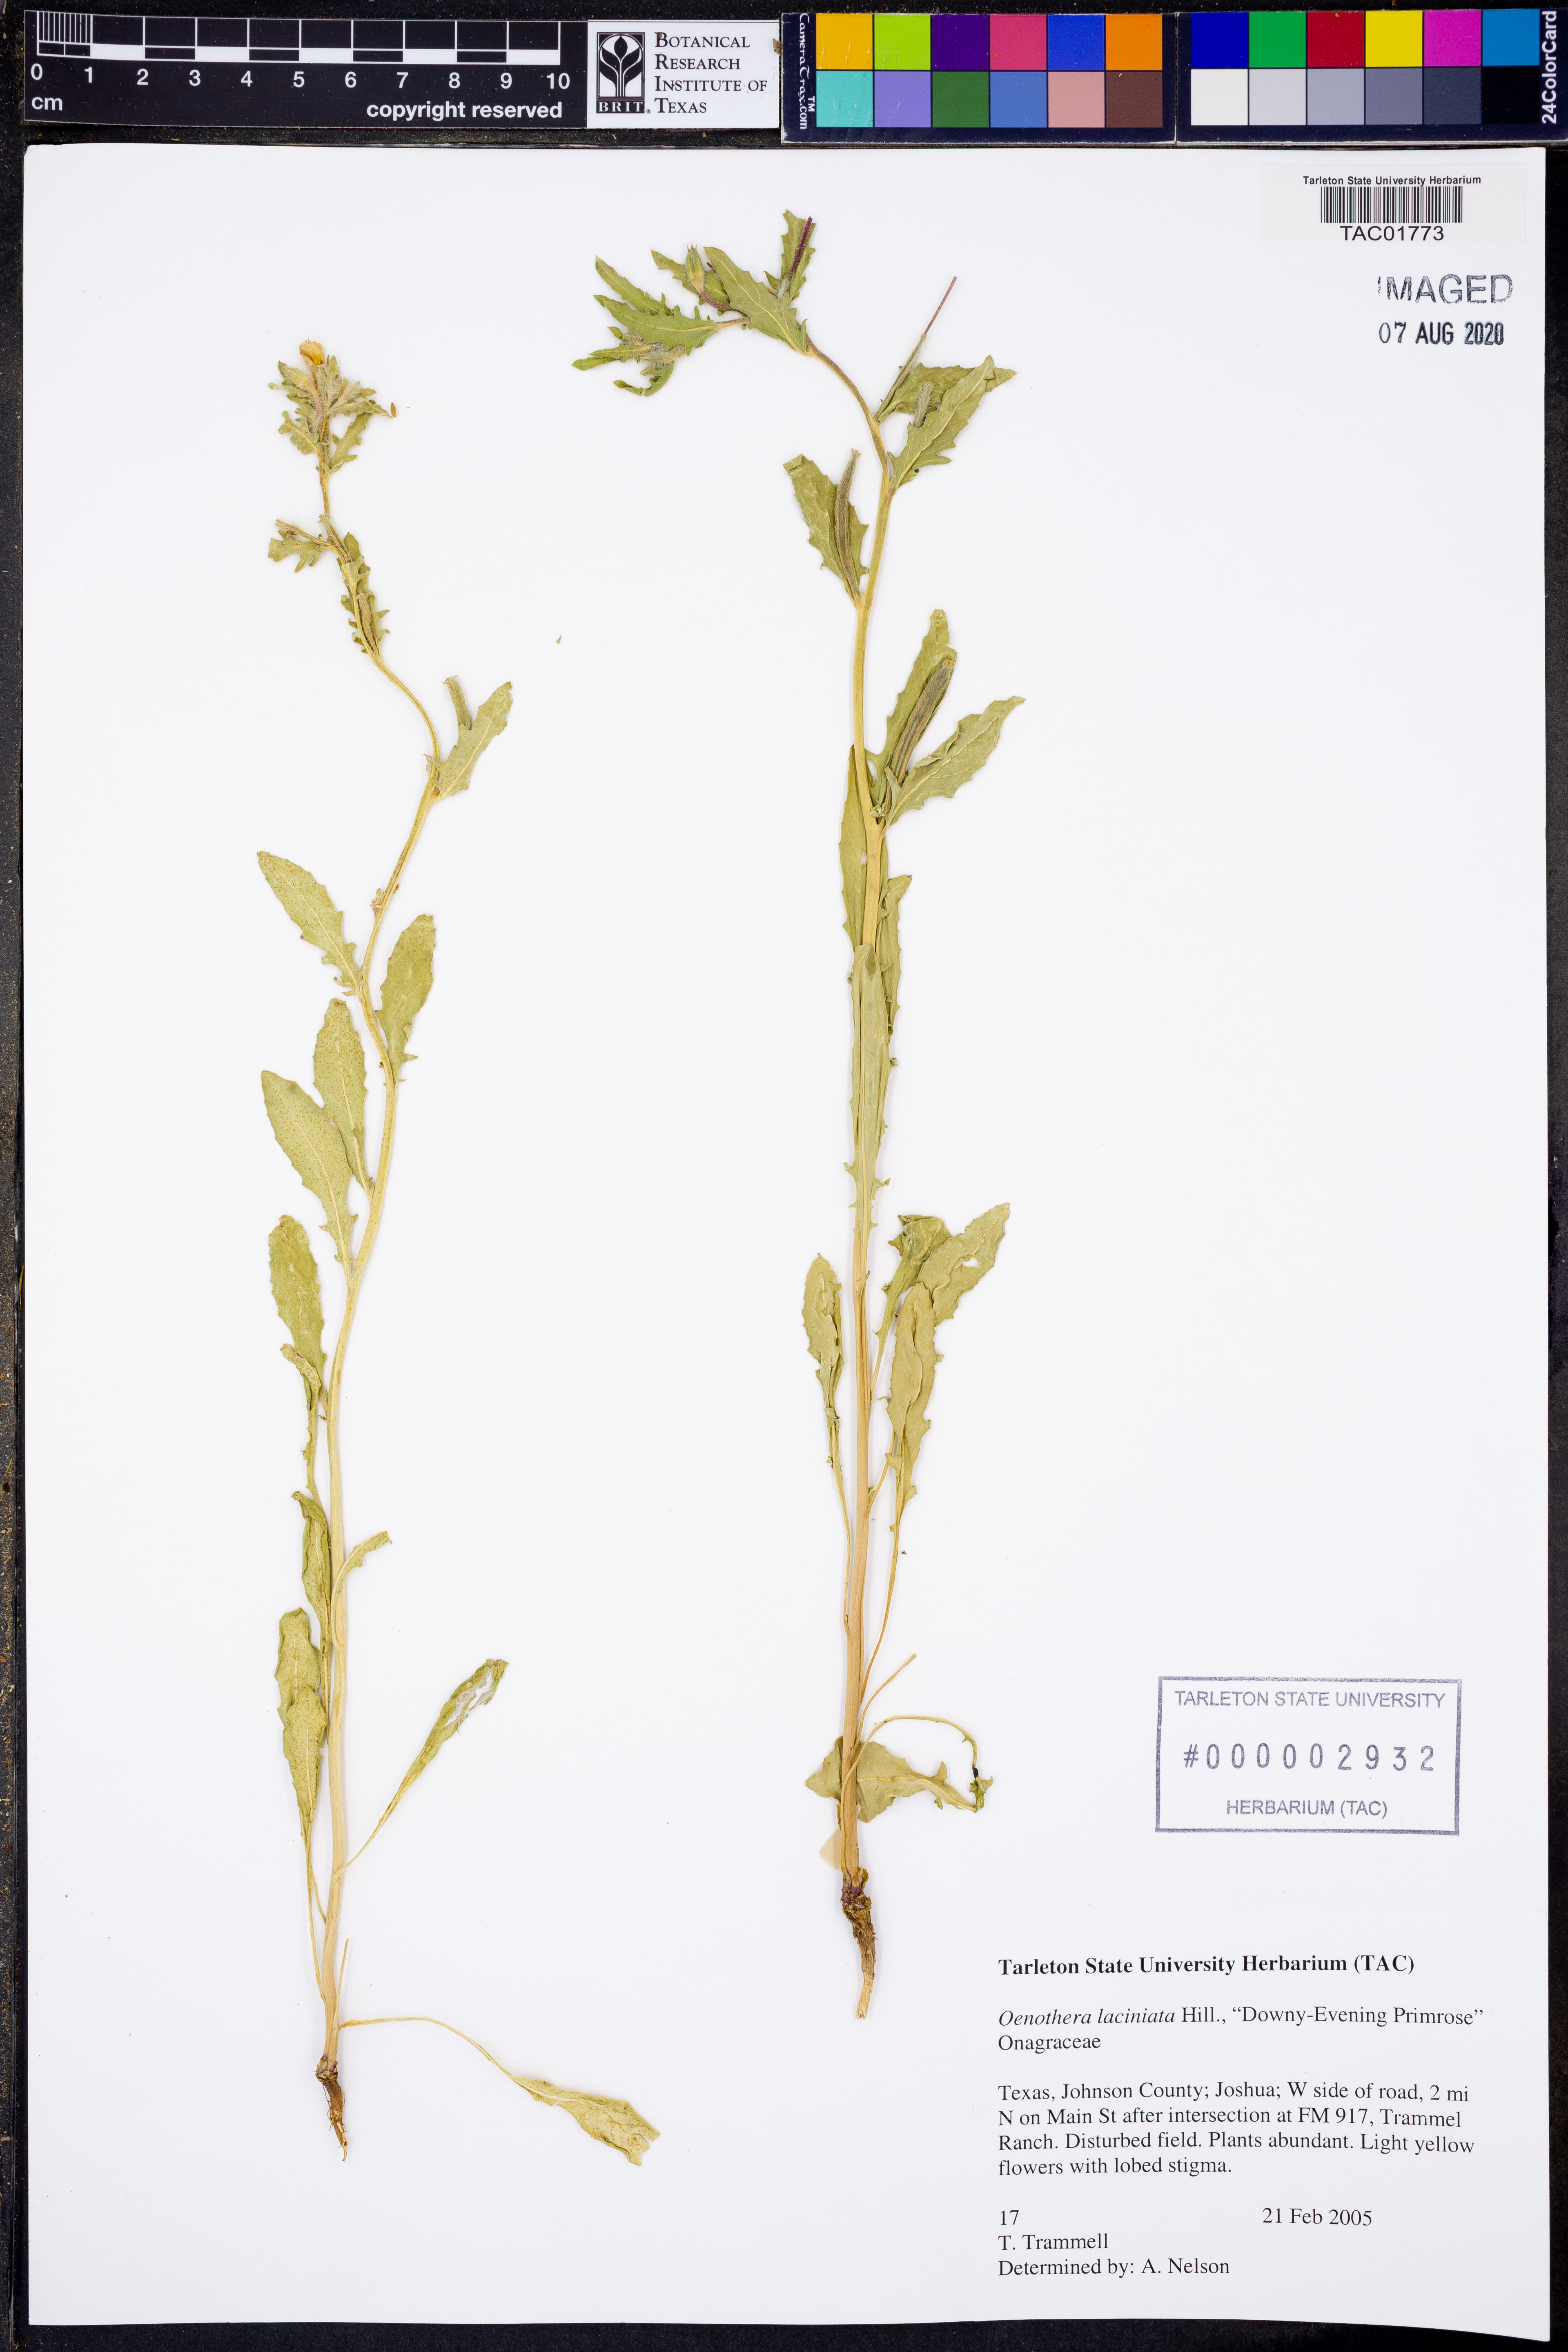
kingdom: Plantae
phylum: Tracheophyta
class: Magnoliopsida
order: Myrtales
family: Onagraceae
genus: Oenothera
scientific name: Oenothera laciniata
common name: Cut-leaved evening-primrose
